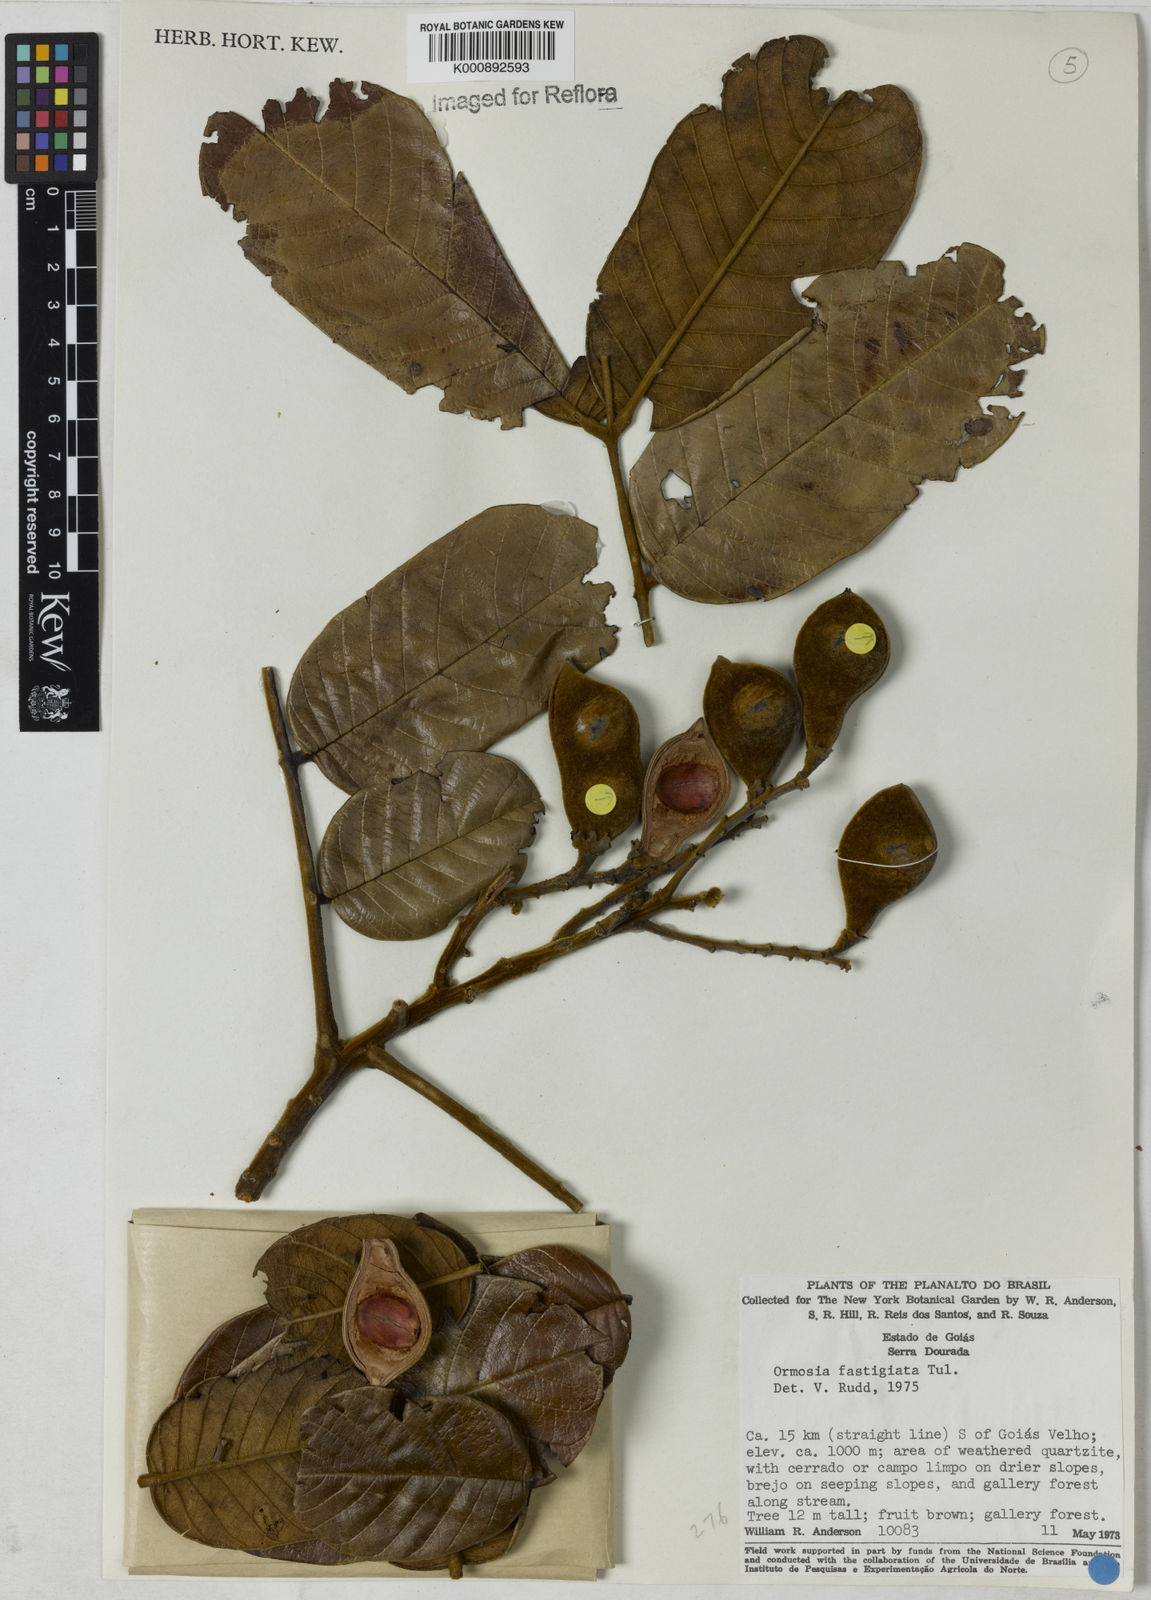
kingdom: Plantae
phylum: Tracheophyta
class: Magnoliopsida
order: Fabales
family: Fabaceae
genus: Ormosia
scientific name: Ormosia coarctata
